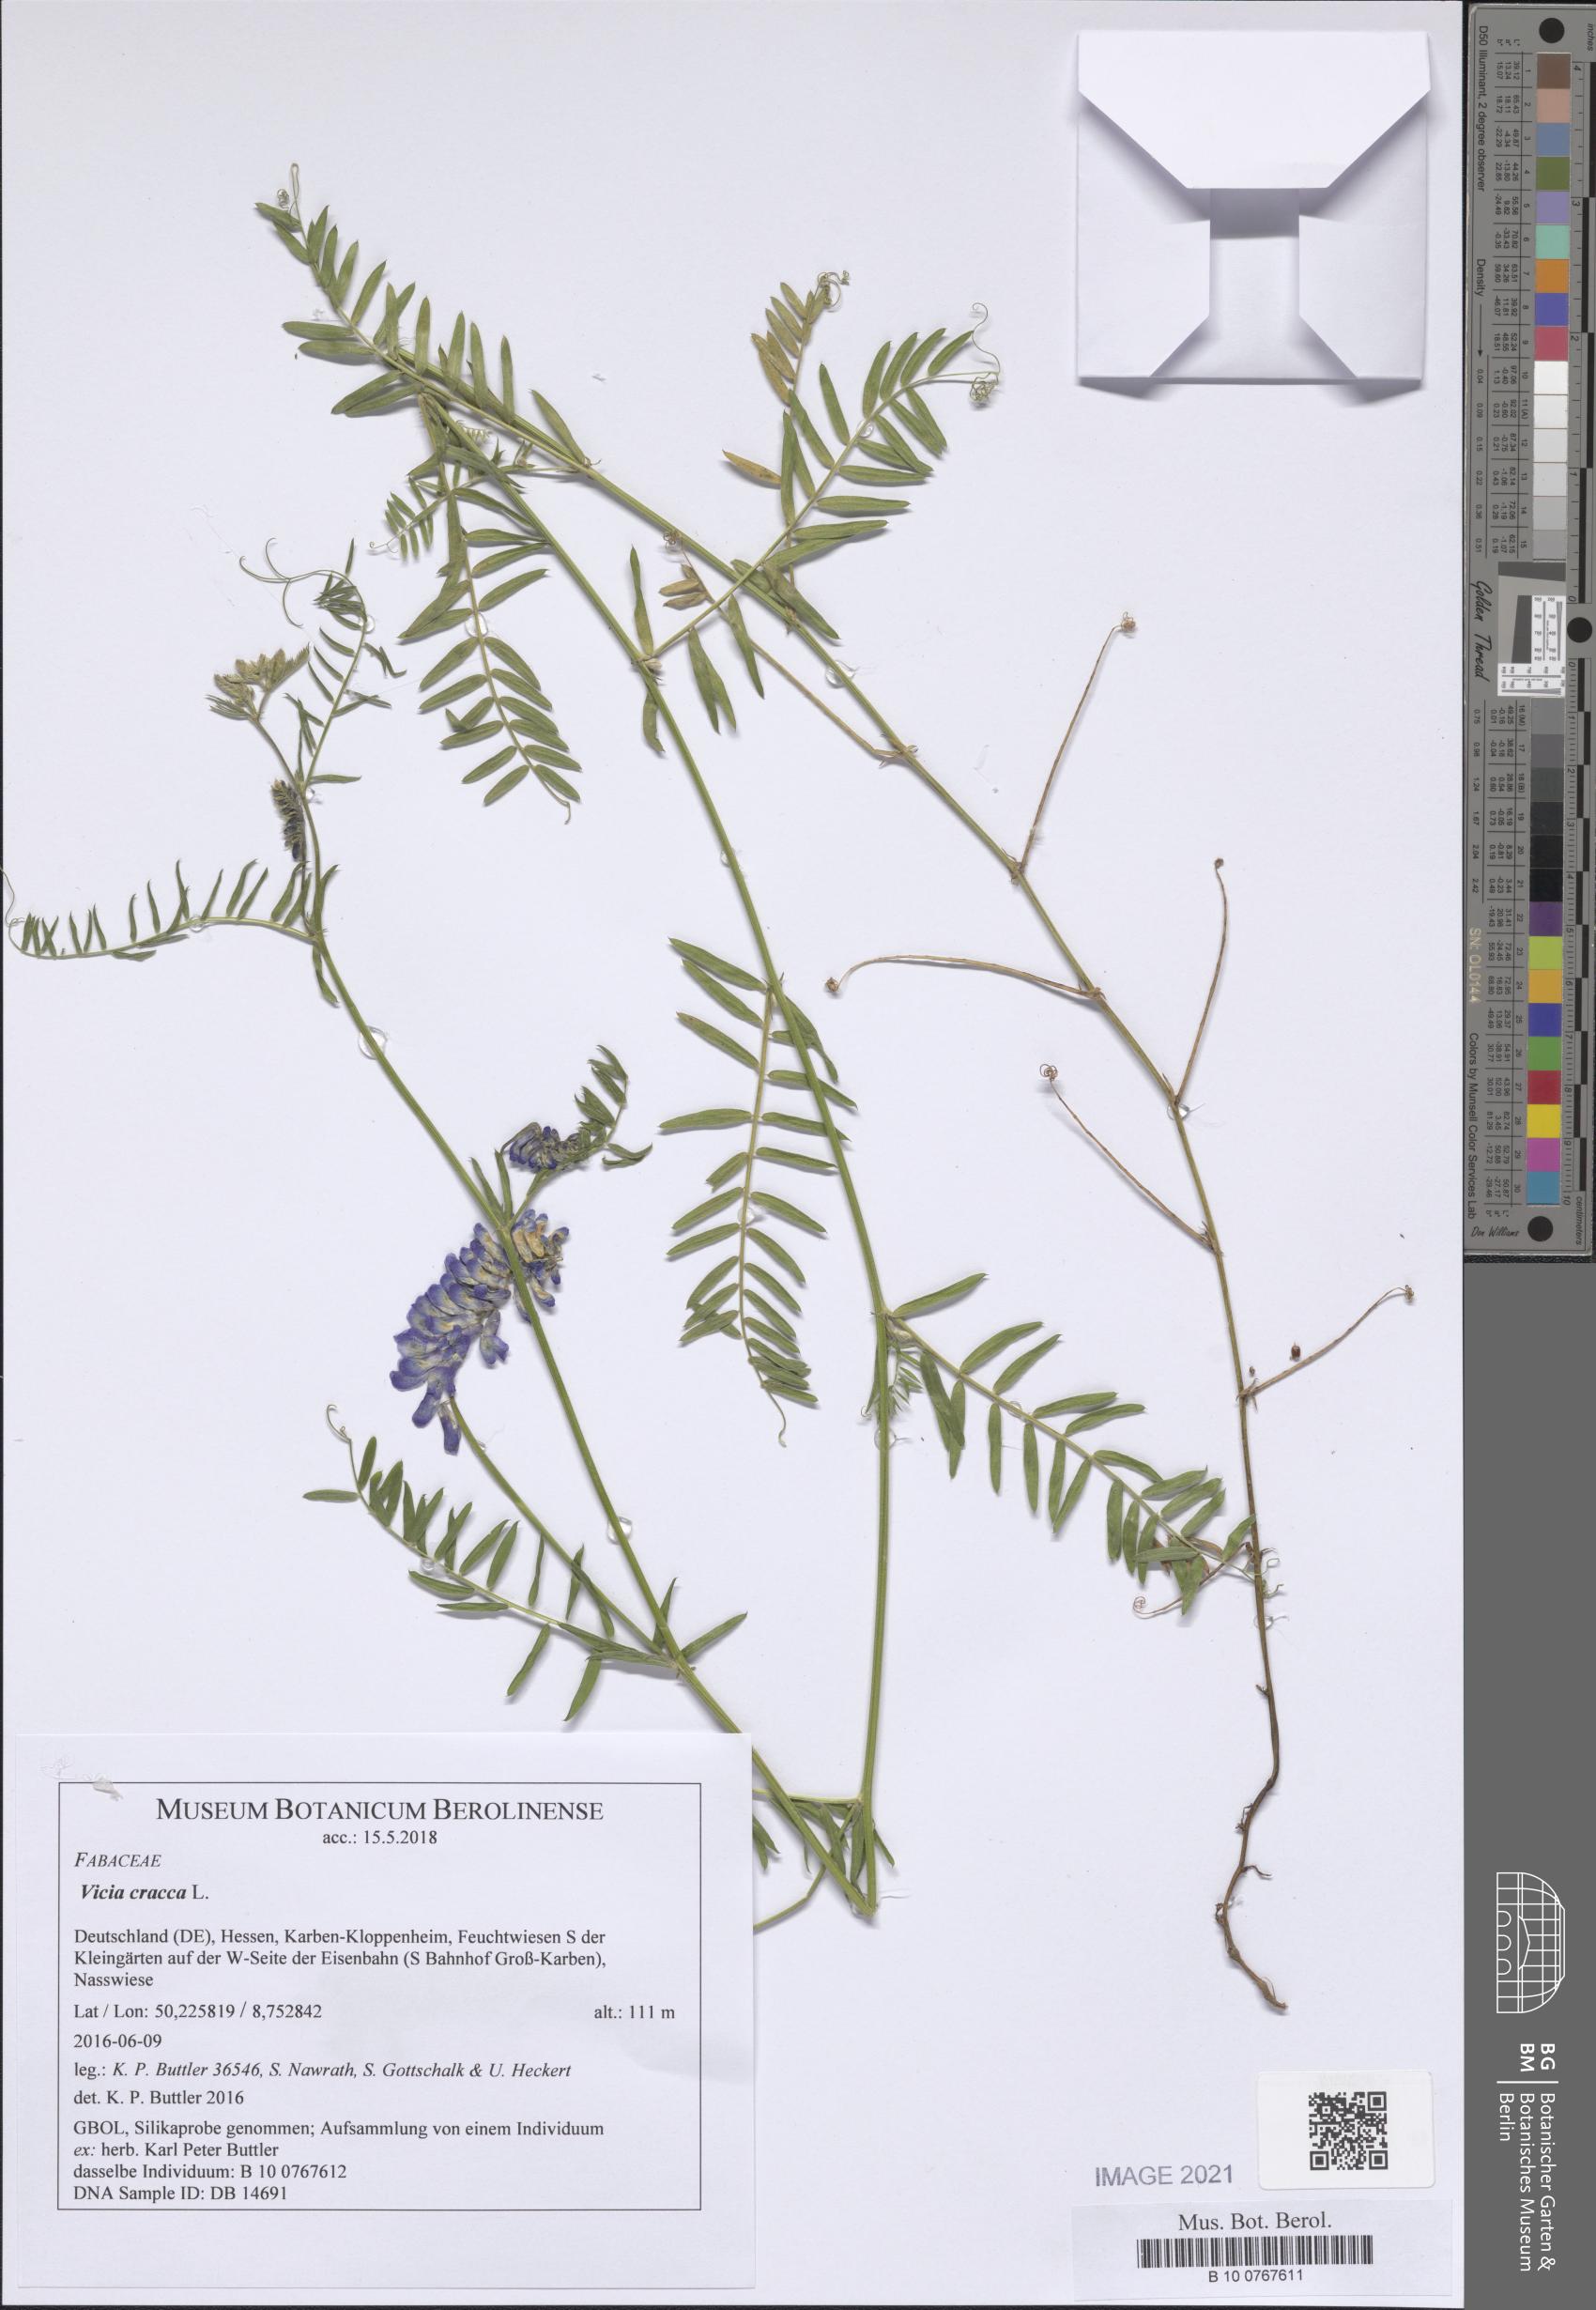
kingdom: Plantae
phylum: Tracheophyta
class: Magnoliopsida
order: Fabales
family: Fabaceae
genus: Vicia
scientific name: Vicia cracca
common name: Bird vetch
